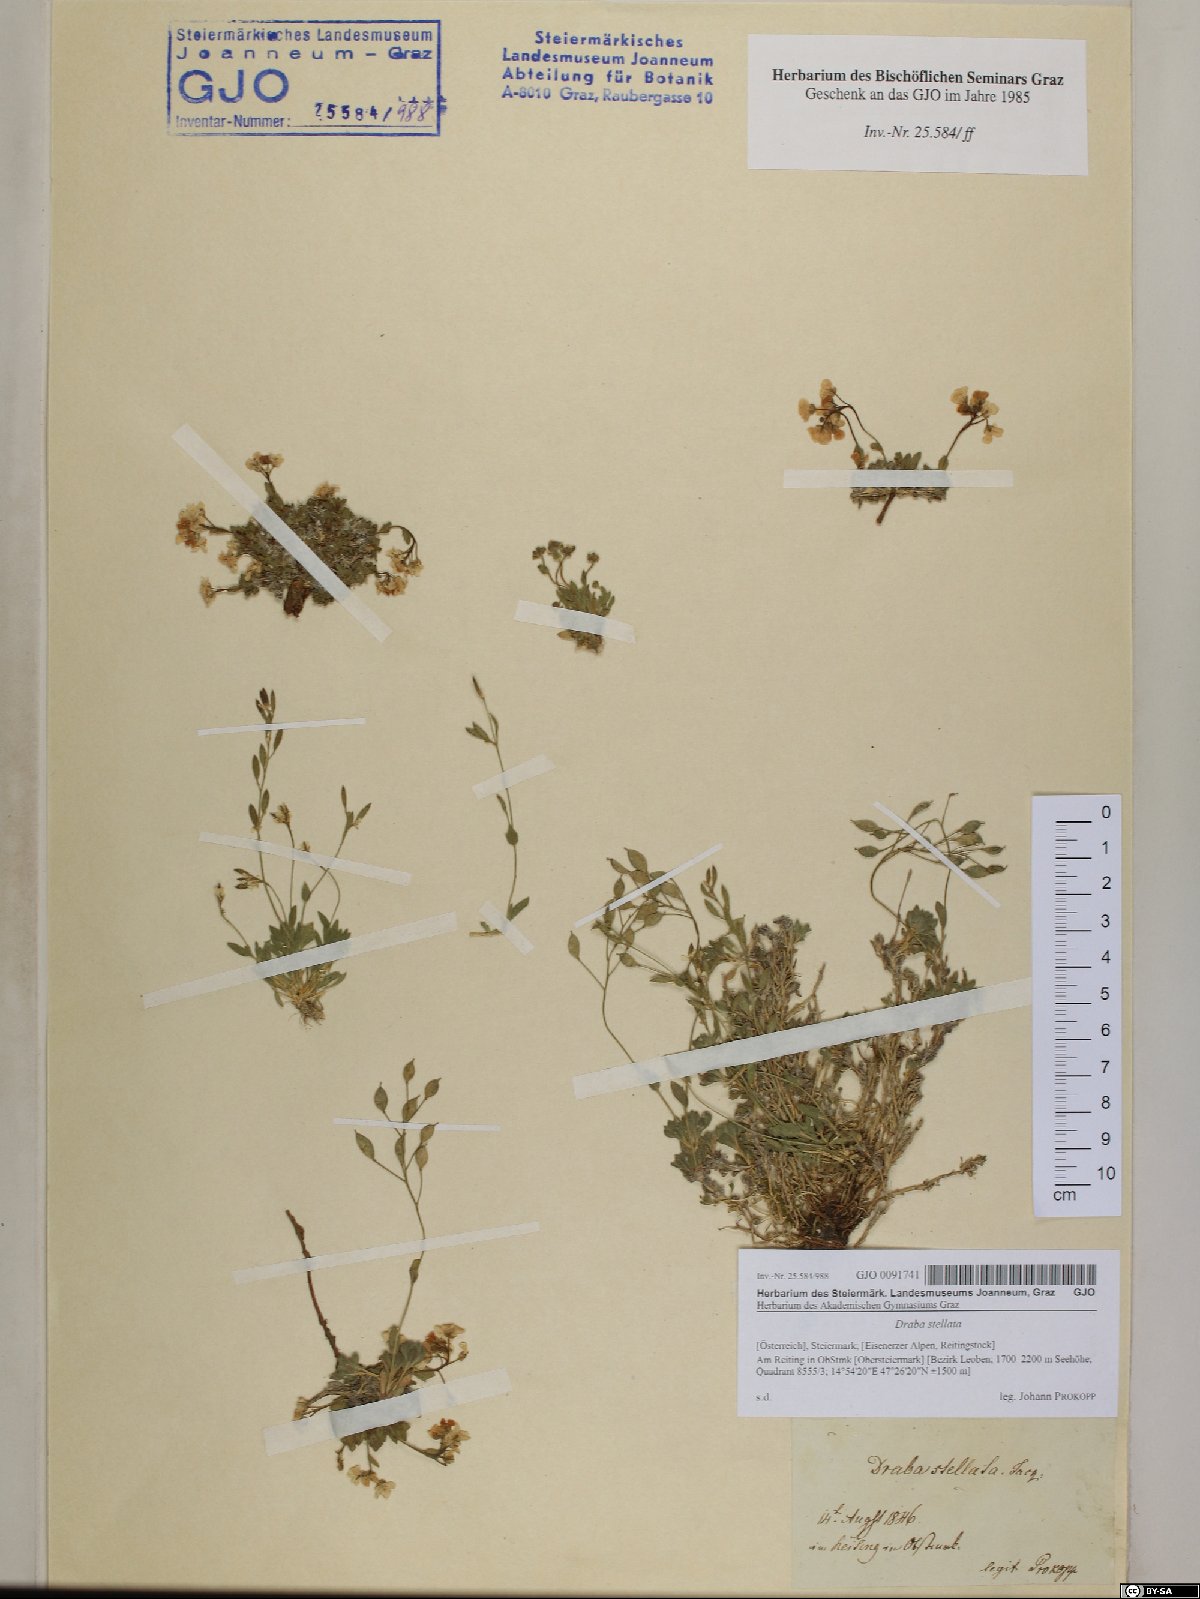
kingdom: Plantae
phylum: Tracheophyta
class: Magnoliopsida
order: Brassicales
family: Brassicaceae
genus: Draba
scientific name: Draba stellata
